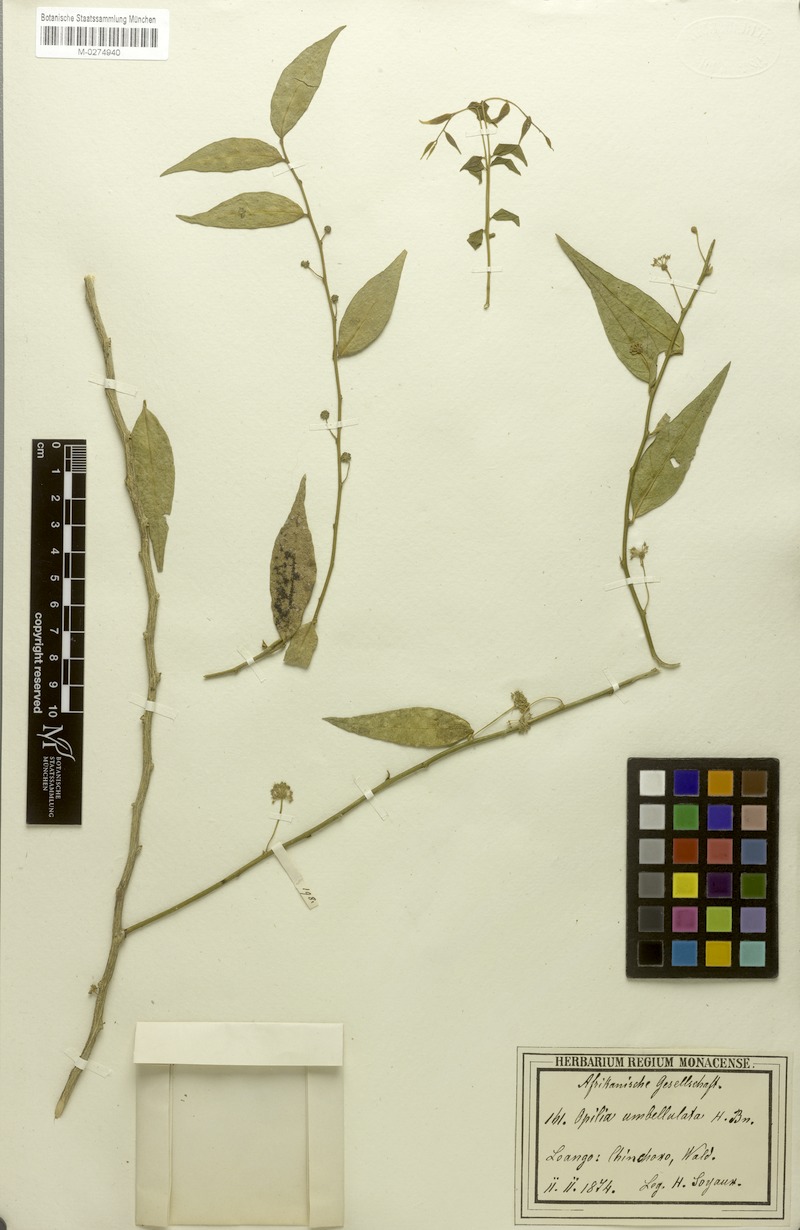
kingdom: Plantae
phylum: Tracheophyta
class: Magnoliopsida
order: Santalales
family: Opiliaceae
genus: Pentarhopalopilia
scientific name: Pentarhopalopilia marquesii
